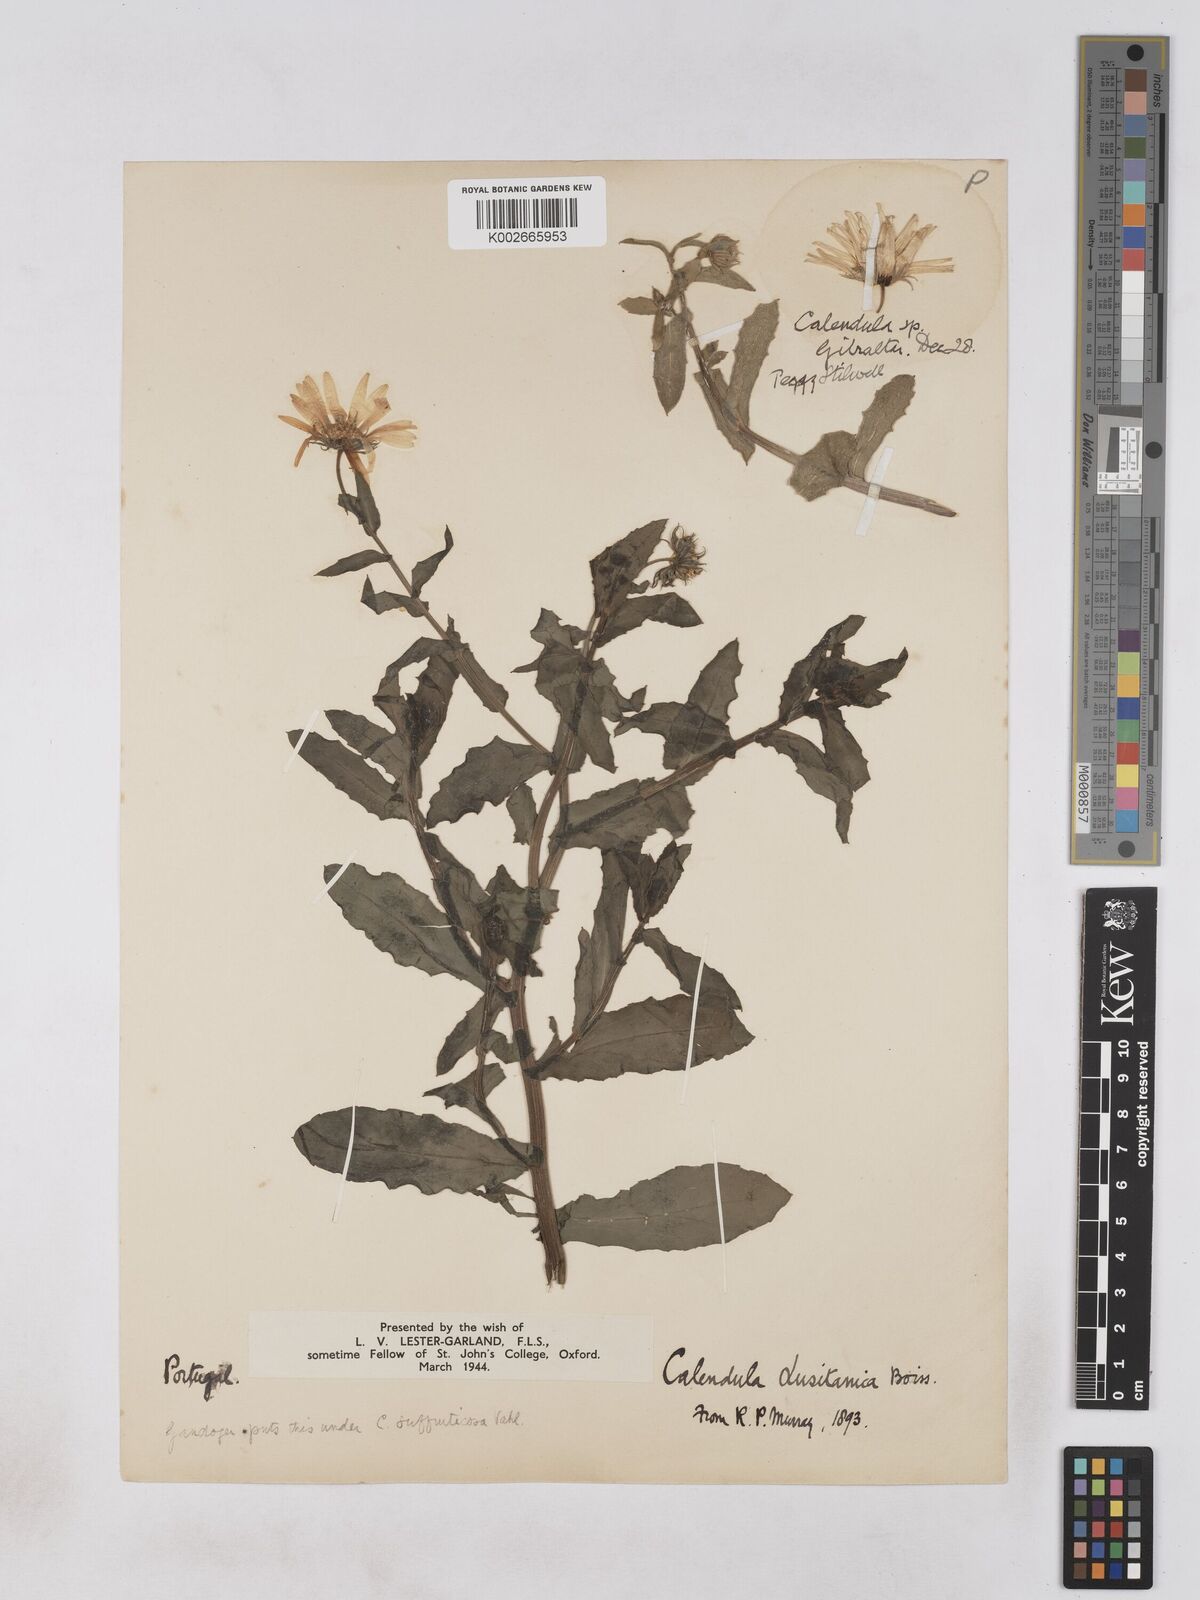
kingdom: Plantae
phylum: Tracheophyta
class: Magnoliopsida
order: Asterales
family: Asteraceae
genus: Calendula
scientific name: Calendula
